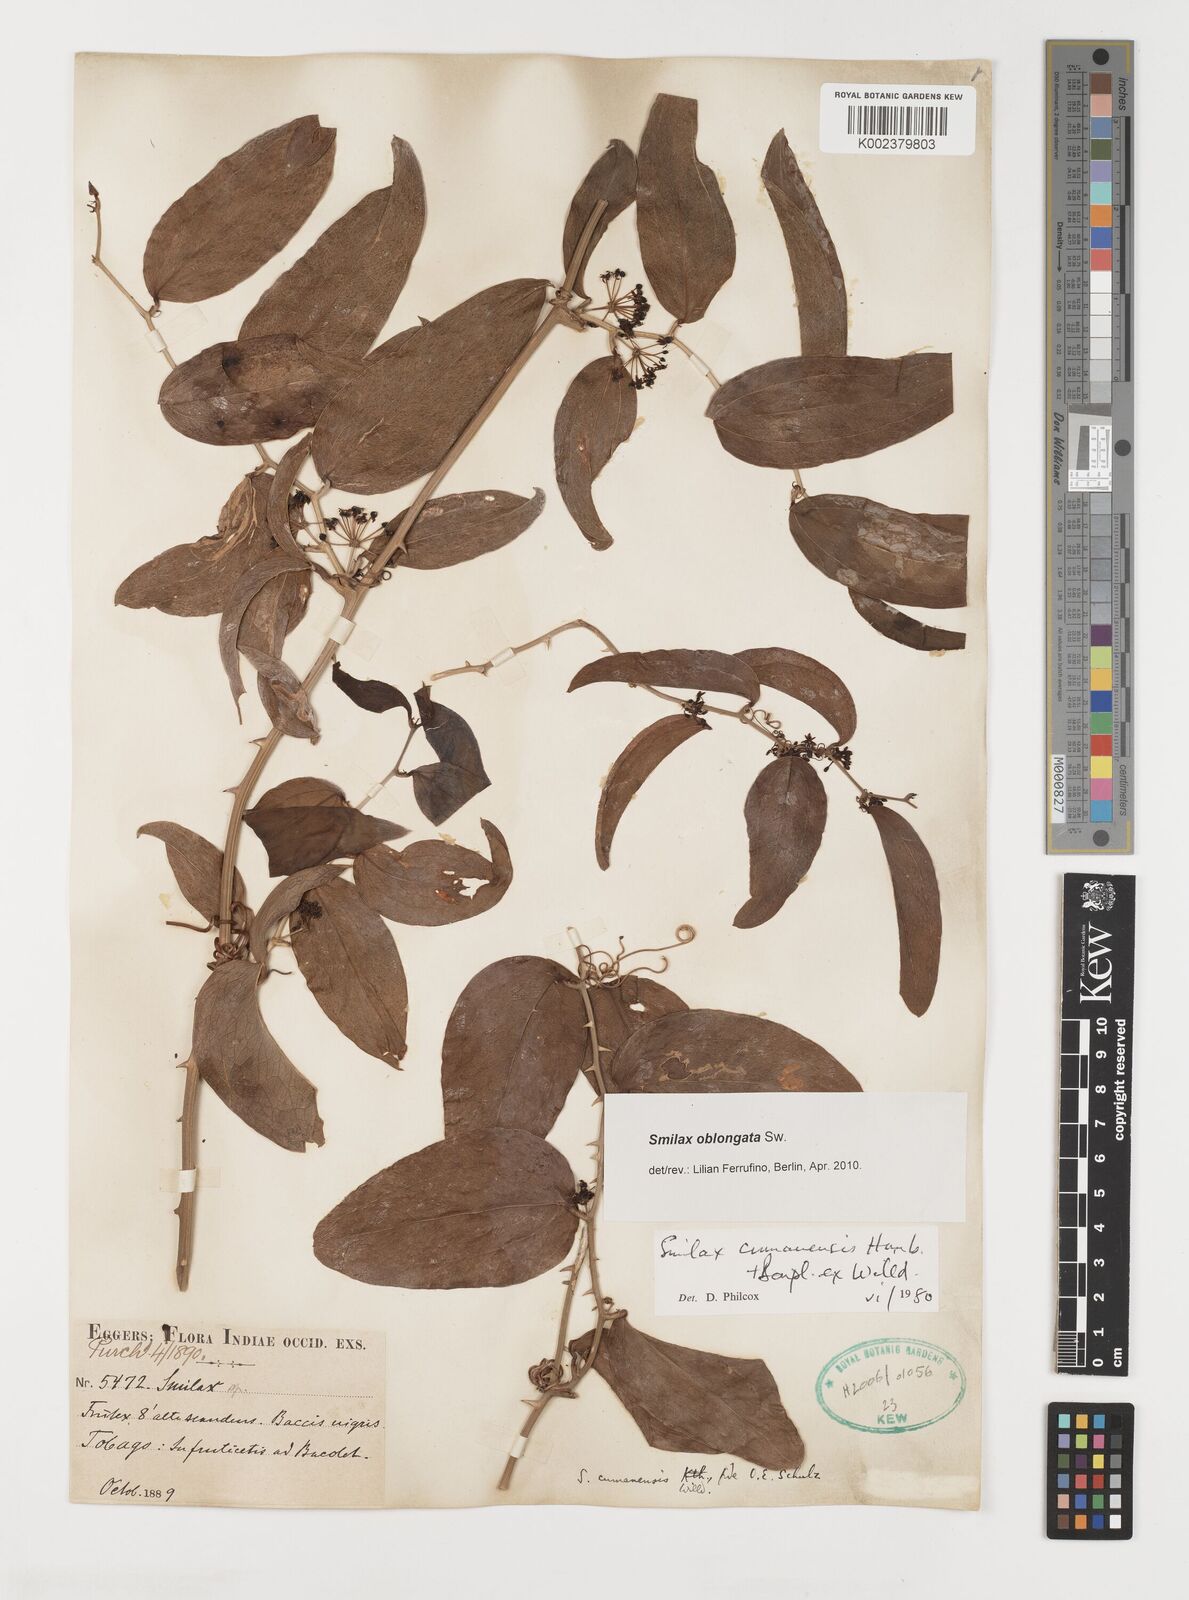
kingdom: Plantae
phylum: Tracheophyta
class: Liliopsida
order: Liliales
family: Smilacaceae
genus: Smilax
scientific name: Smilax oblongata
